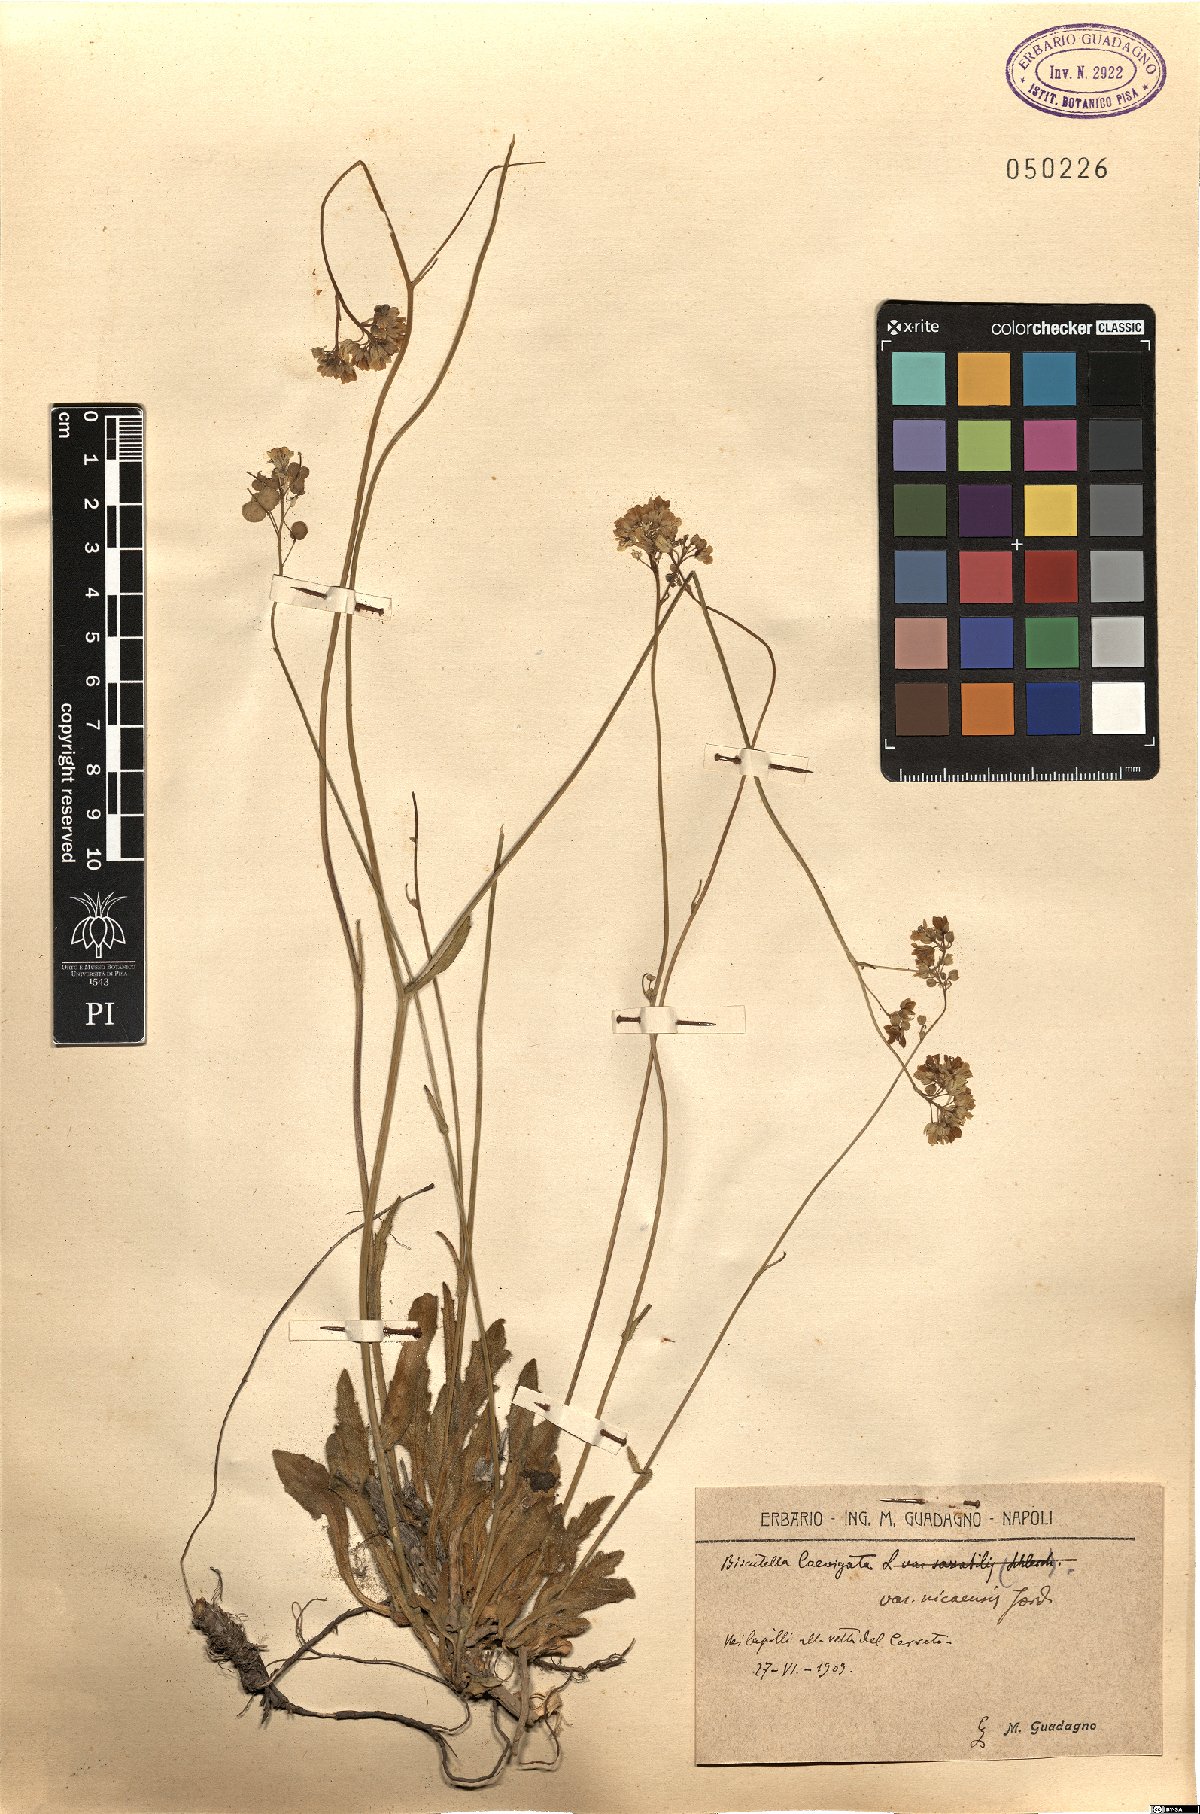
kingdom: Plantae
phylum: Tracheophyta
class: Magnoliopsida
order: Brassicales
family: Brassicaceae
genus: Biscutella
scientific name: Biscutella laevigata
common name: Buckler mustard
